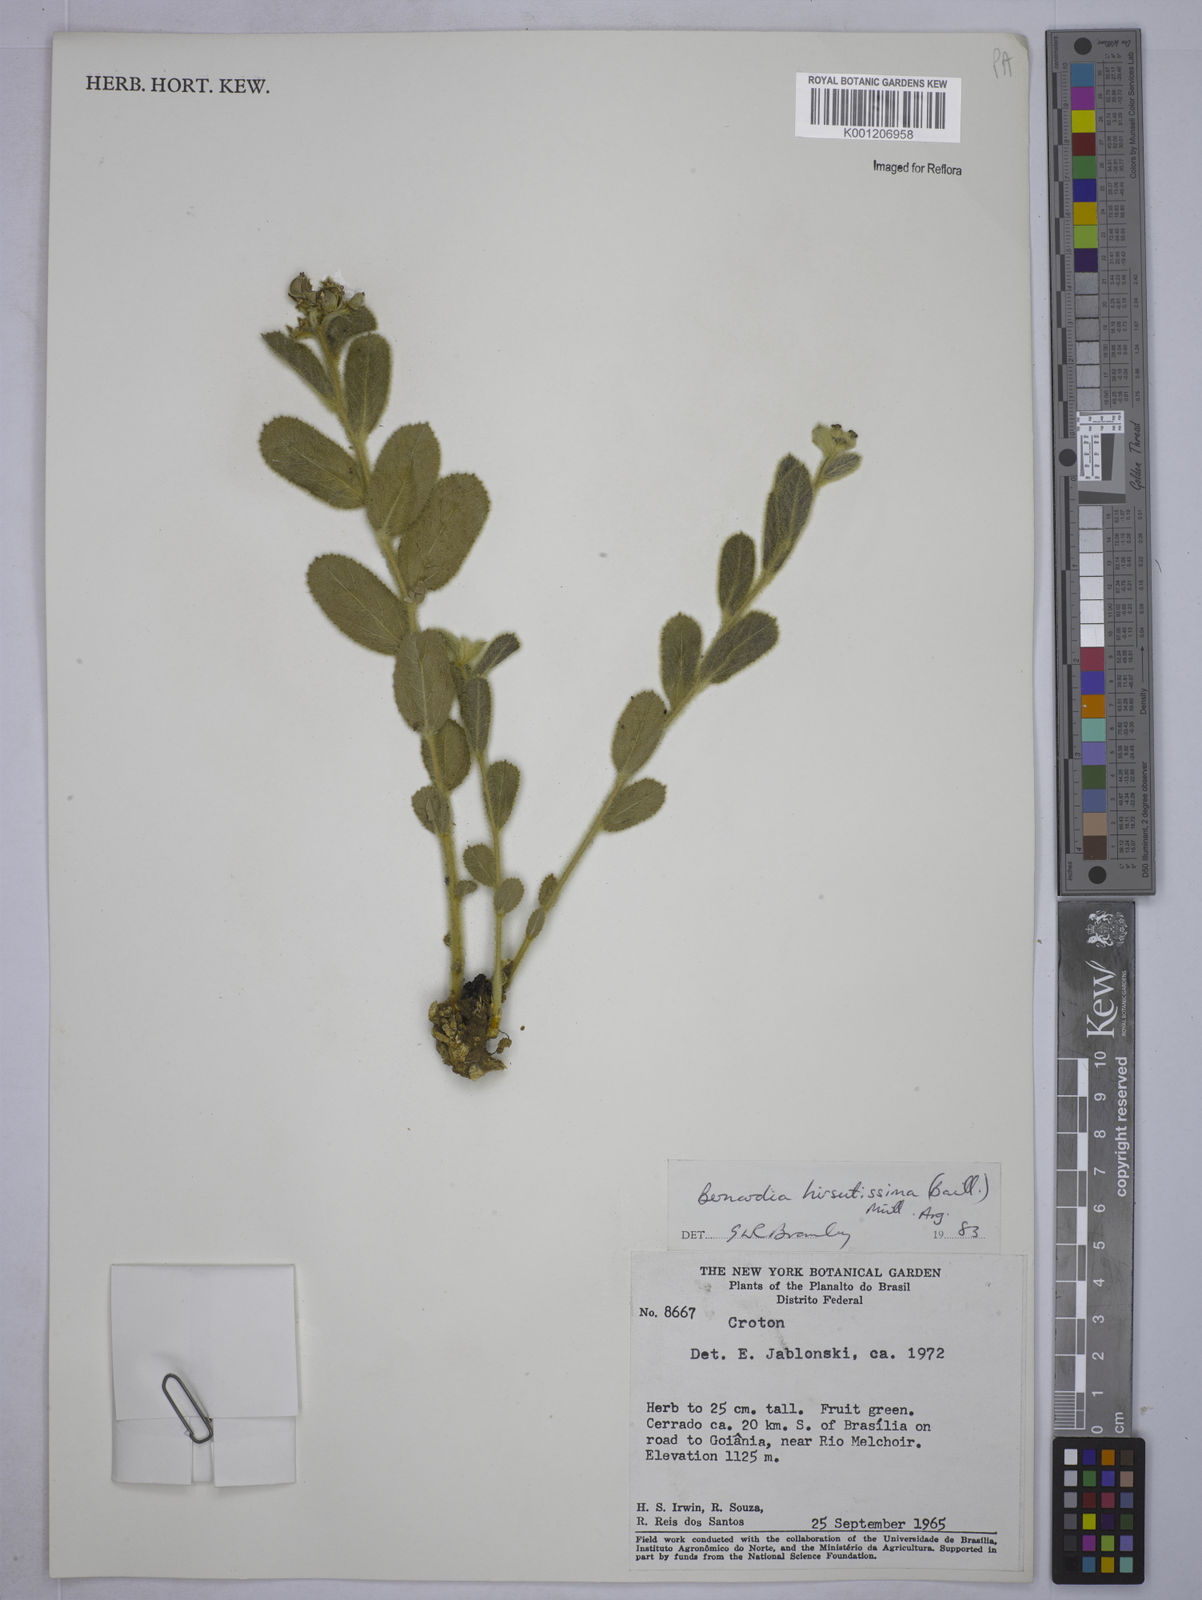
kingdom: Plantae
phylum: Tracheophyta
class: Magnoliopsida
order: Malpighiales
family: Euphorbiaceae
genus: Bernardia
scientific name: Bernardia
